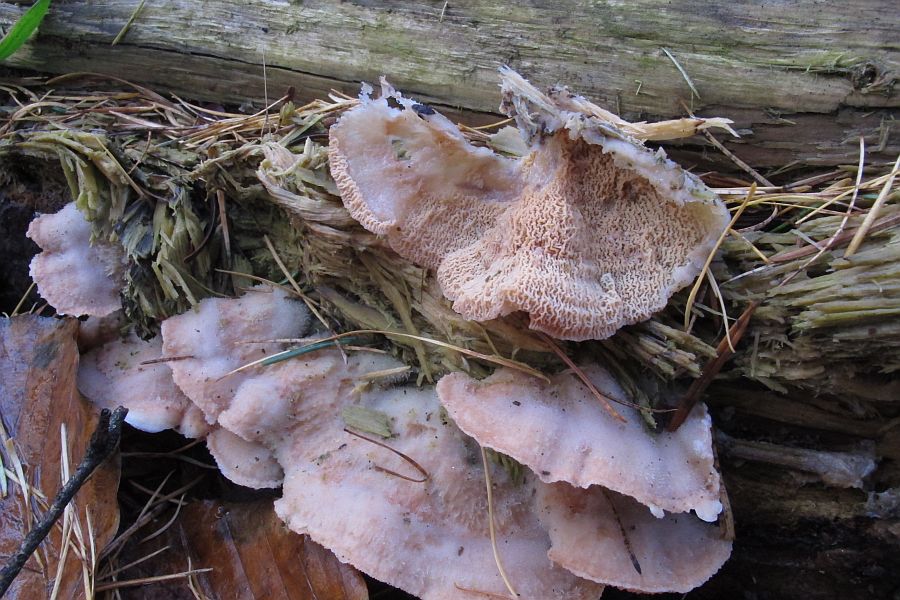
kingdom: Fungi
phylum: Basidiomycota
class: Agaricomycetes
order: Polyporales
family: Meruliaceae
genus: Phlebia
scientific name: Phlebia tremellosa
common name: bævrende åresvamp
